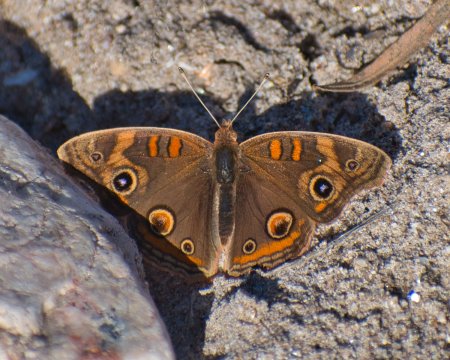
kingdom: Animalia
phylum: Arthropoda
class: Insecta
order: Lepidoptera
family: Nymphalidae
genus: Junonia
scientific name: Junonia coenia
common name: Common Buckeye
